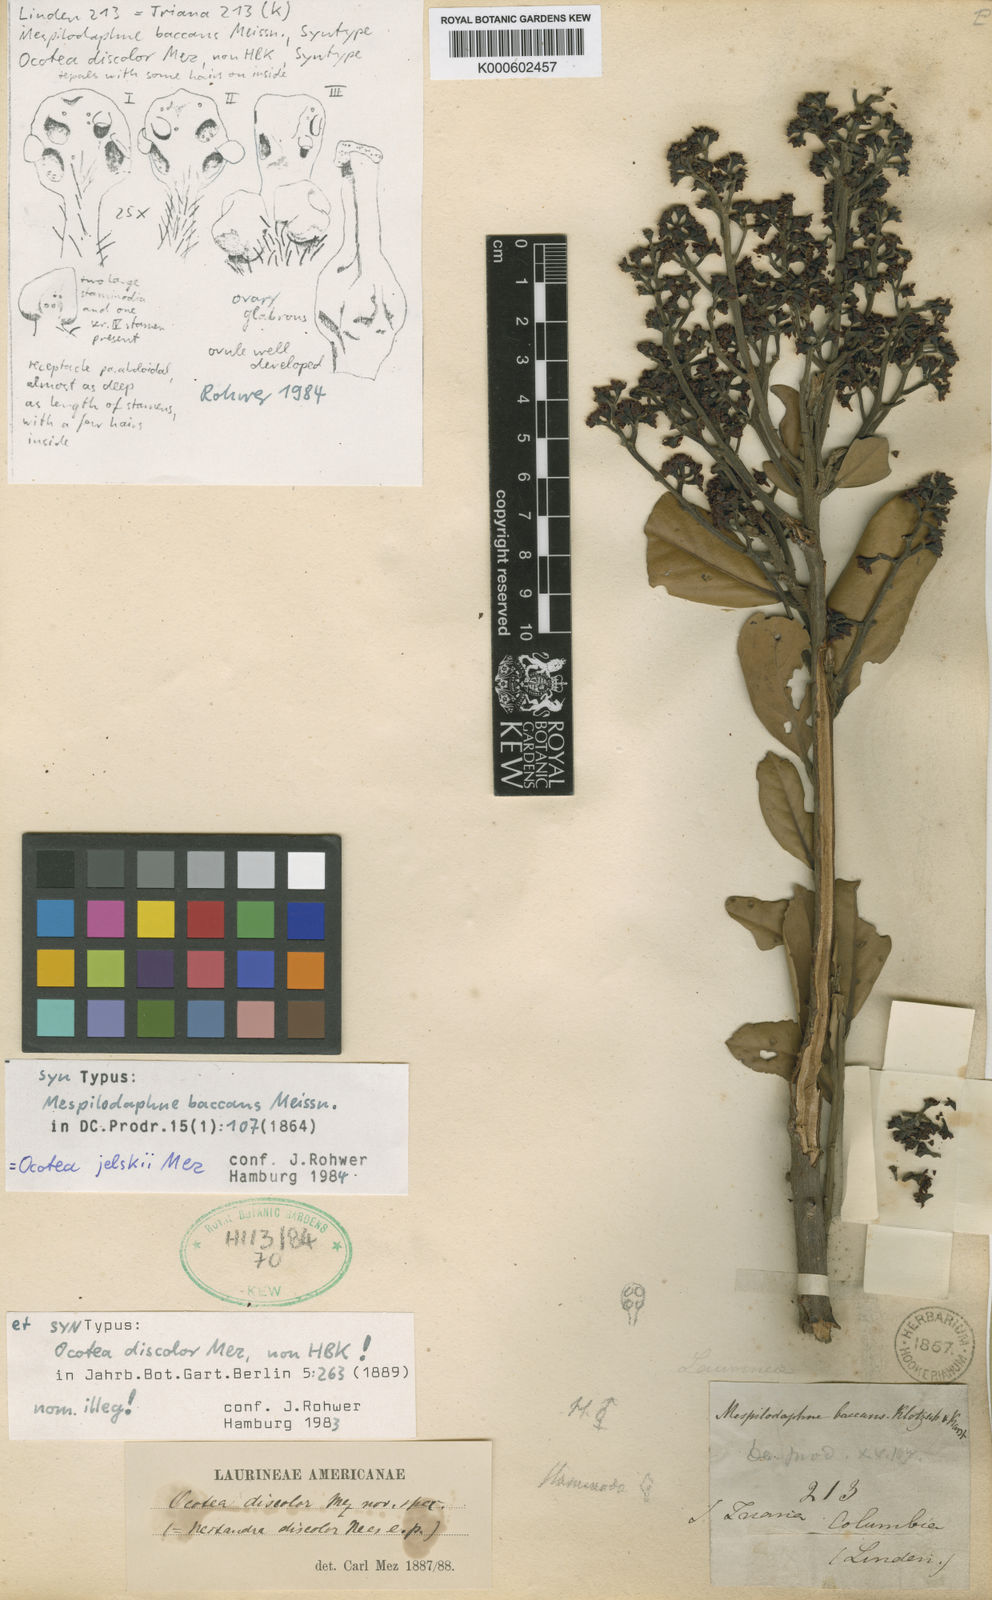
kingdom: Plantae
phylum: Tracheophyta
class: Magnoliopsida
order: Laurales
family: Lauraceae
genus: Ocotea
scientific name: Ocotea jelskii
